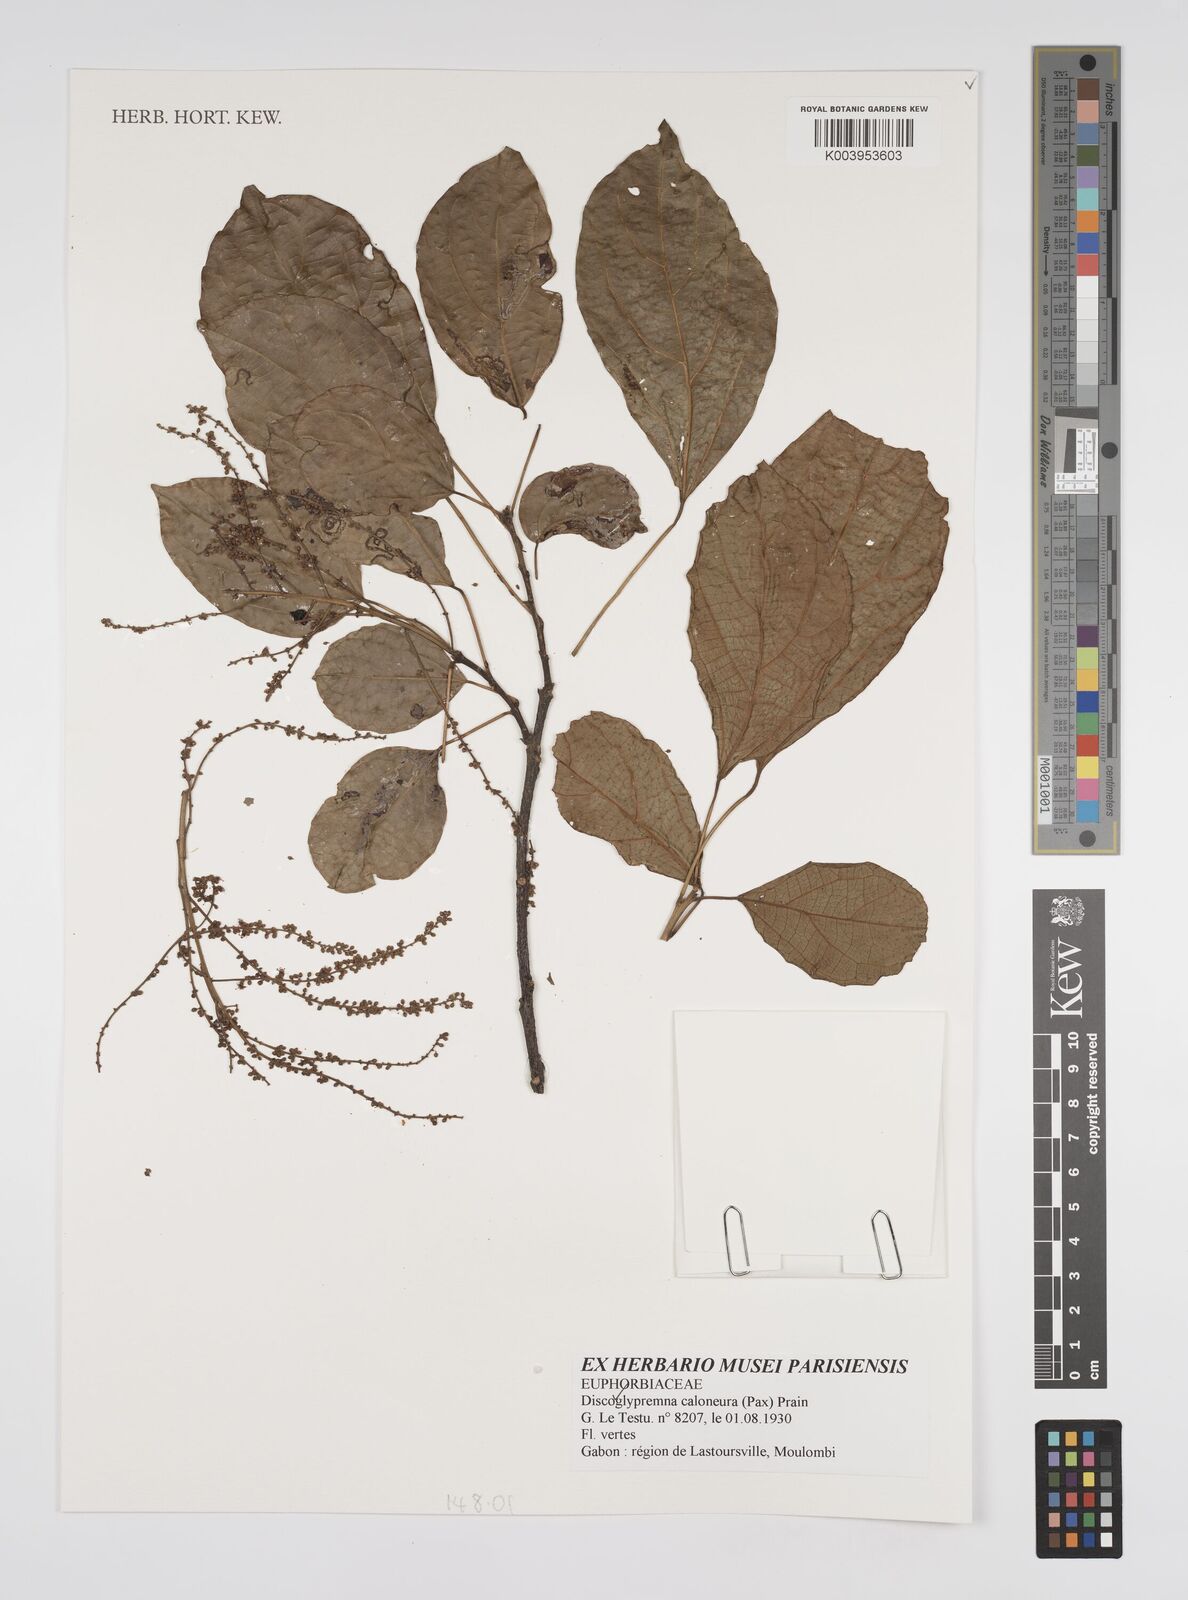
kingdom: Plantae
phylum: Tracheophyta
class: Magnoliopsida
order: Malpighiales
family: Euphorbiaceae
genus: Discoglypremna
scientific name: Discoglypremna caloneura
